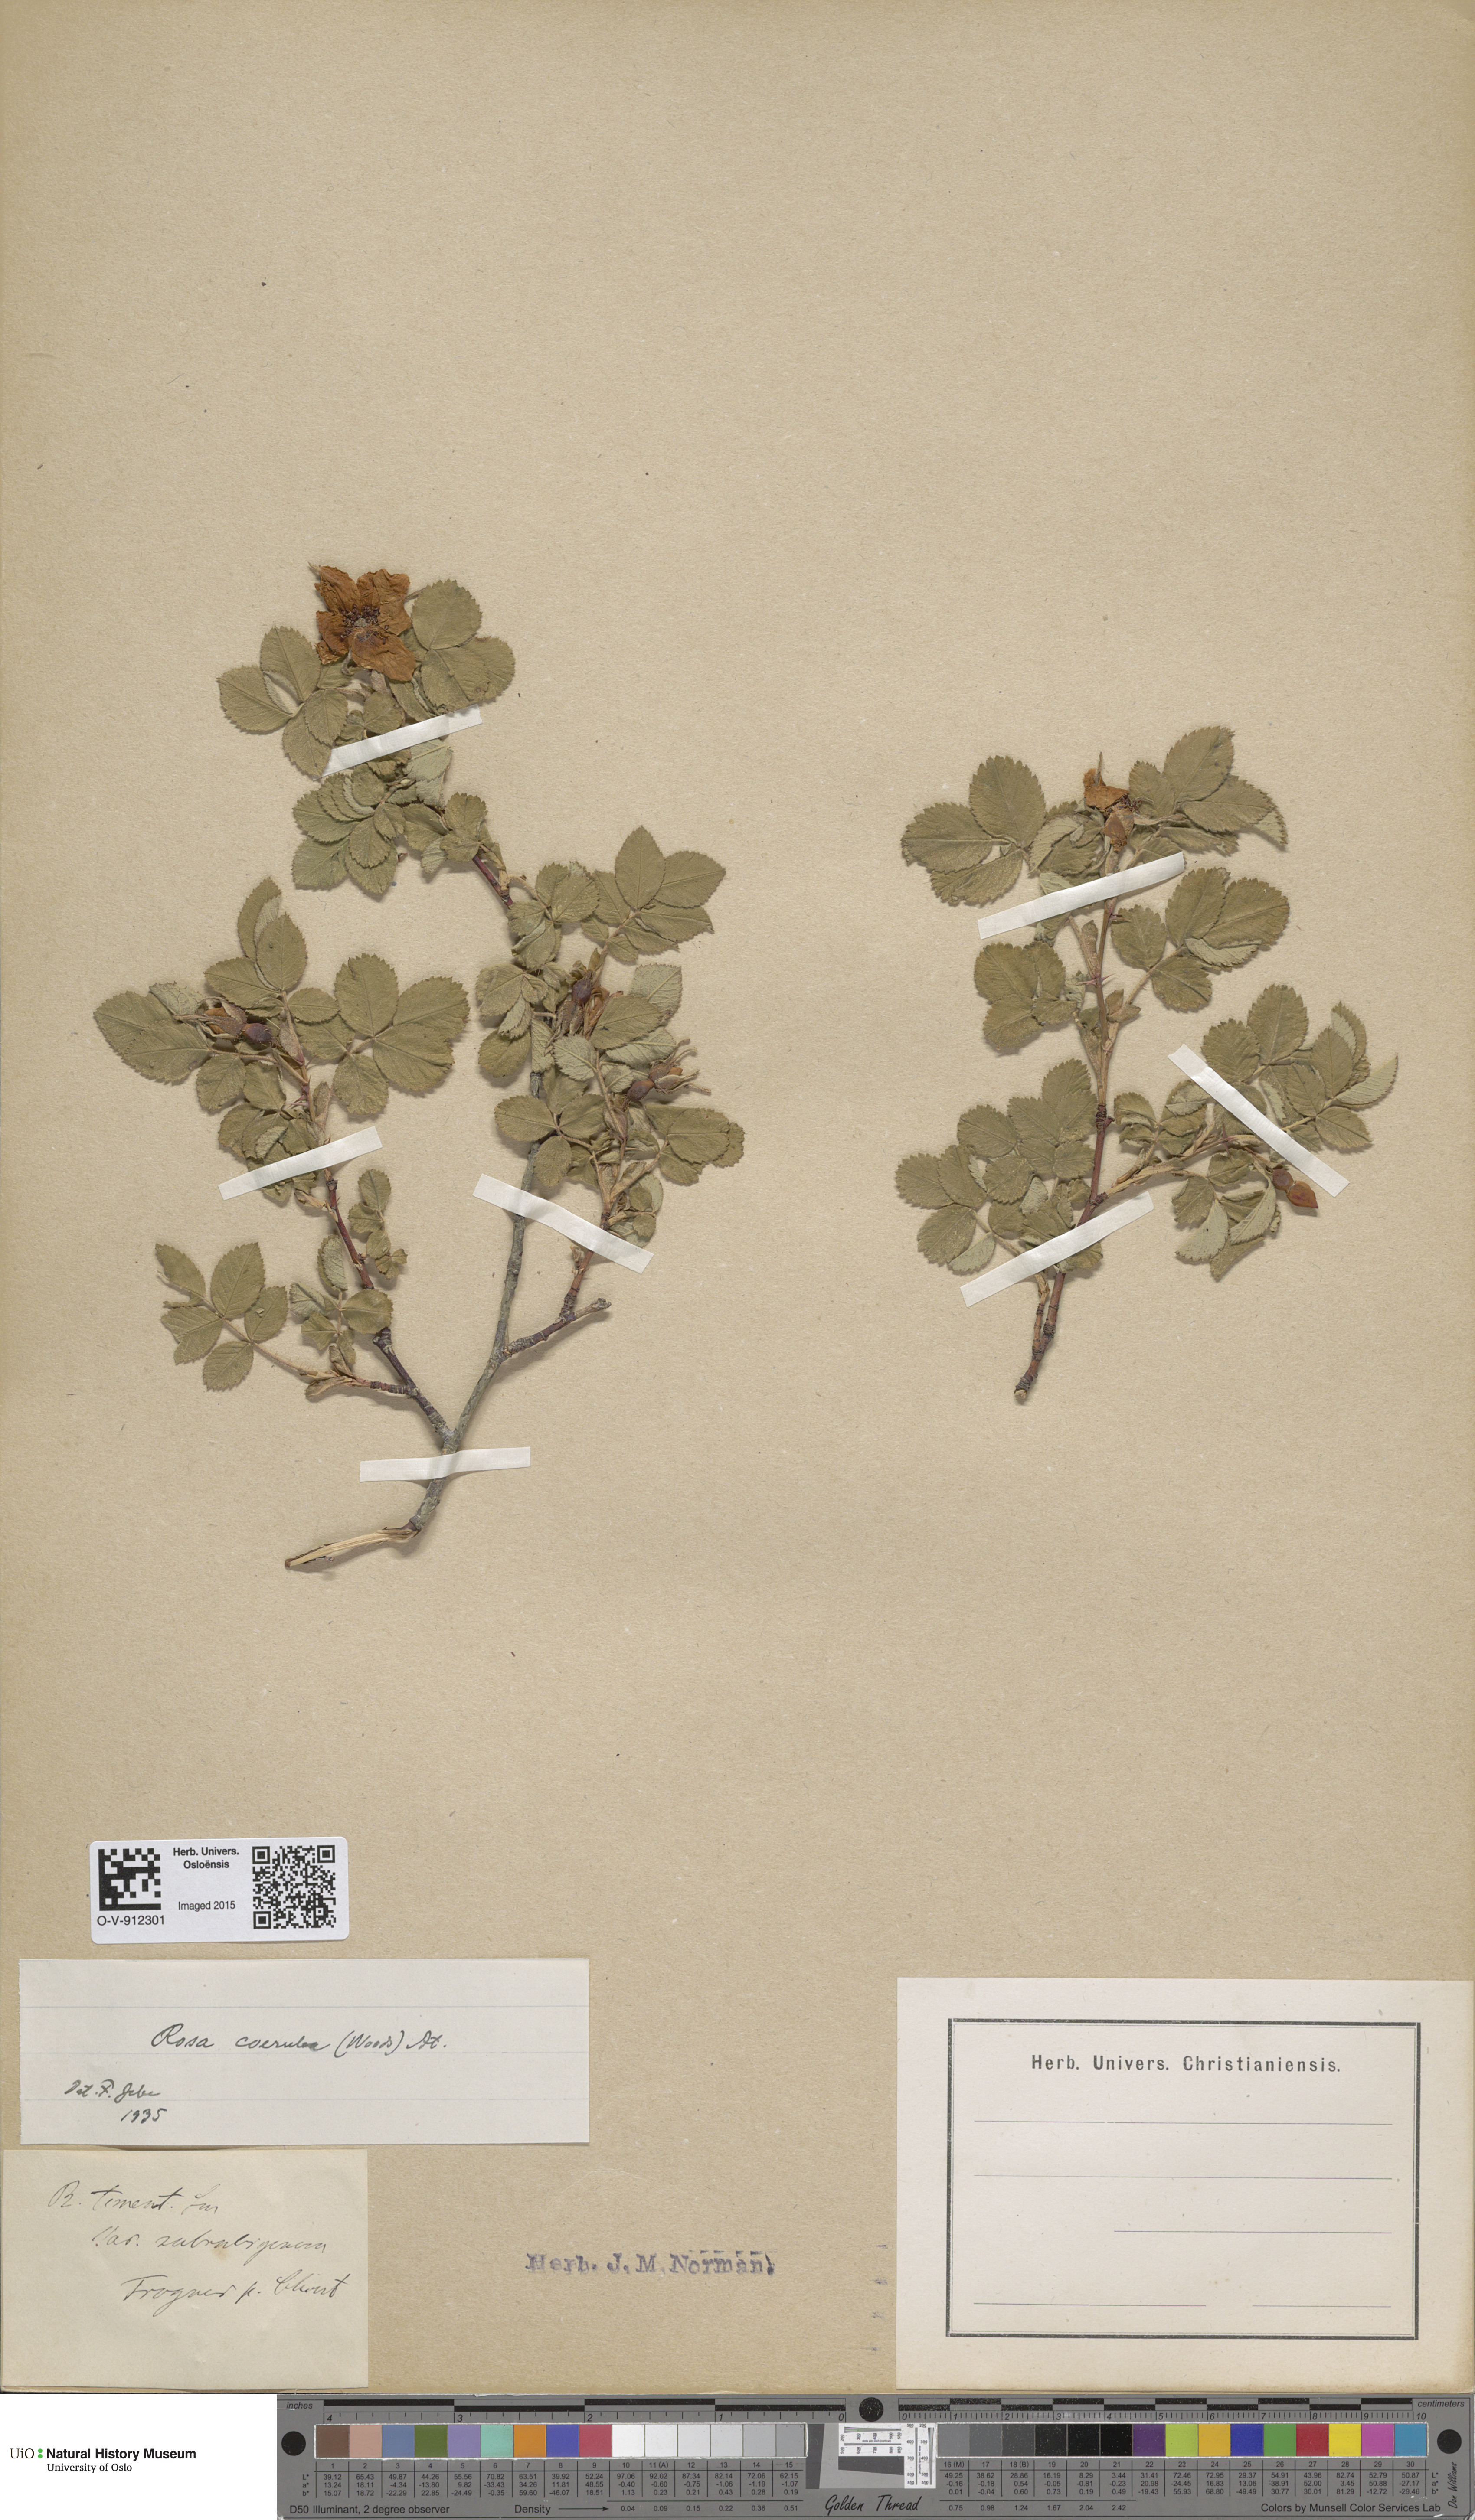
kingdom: Plantae
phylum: Tracheophyta
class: Magnoliopsida
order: Rosales
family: Rosaceae
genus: Rosa
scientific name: Rosa mollis
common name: Rose
